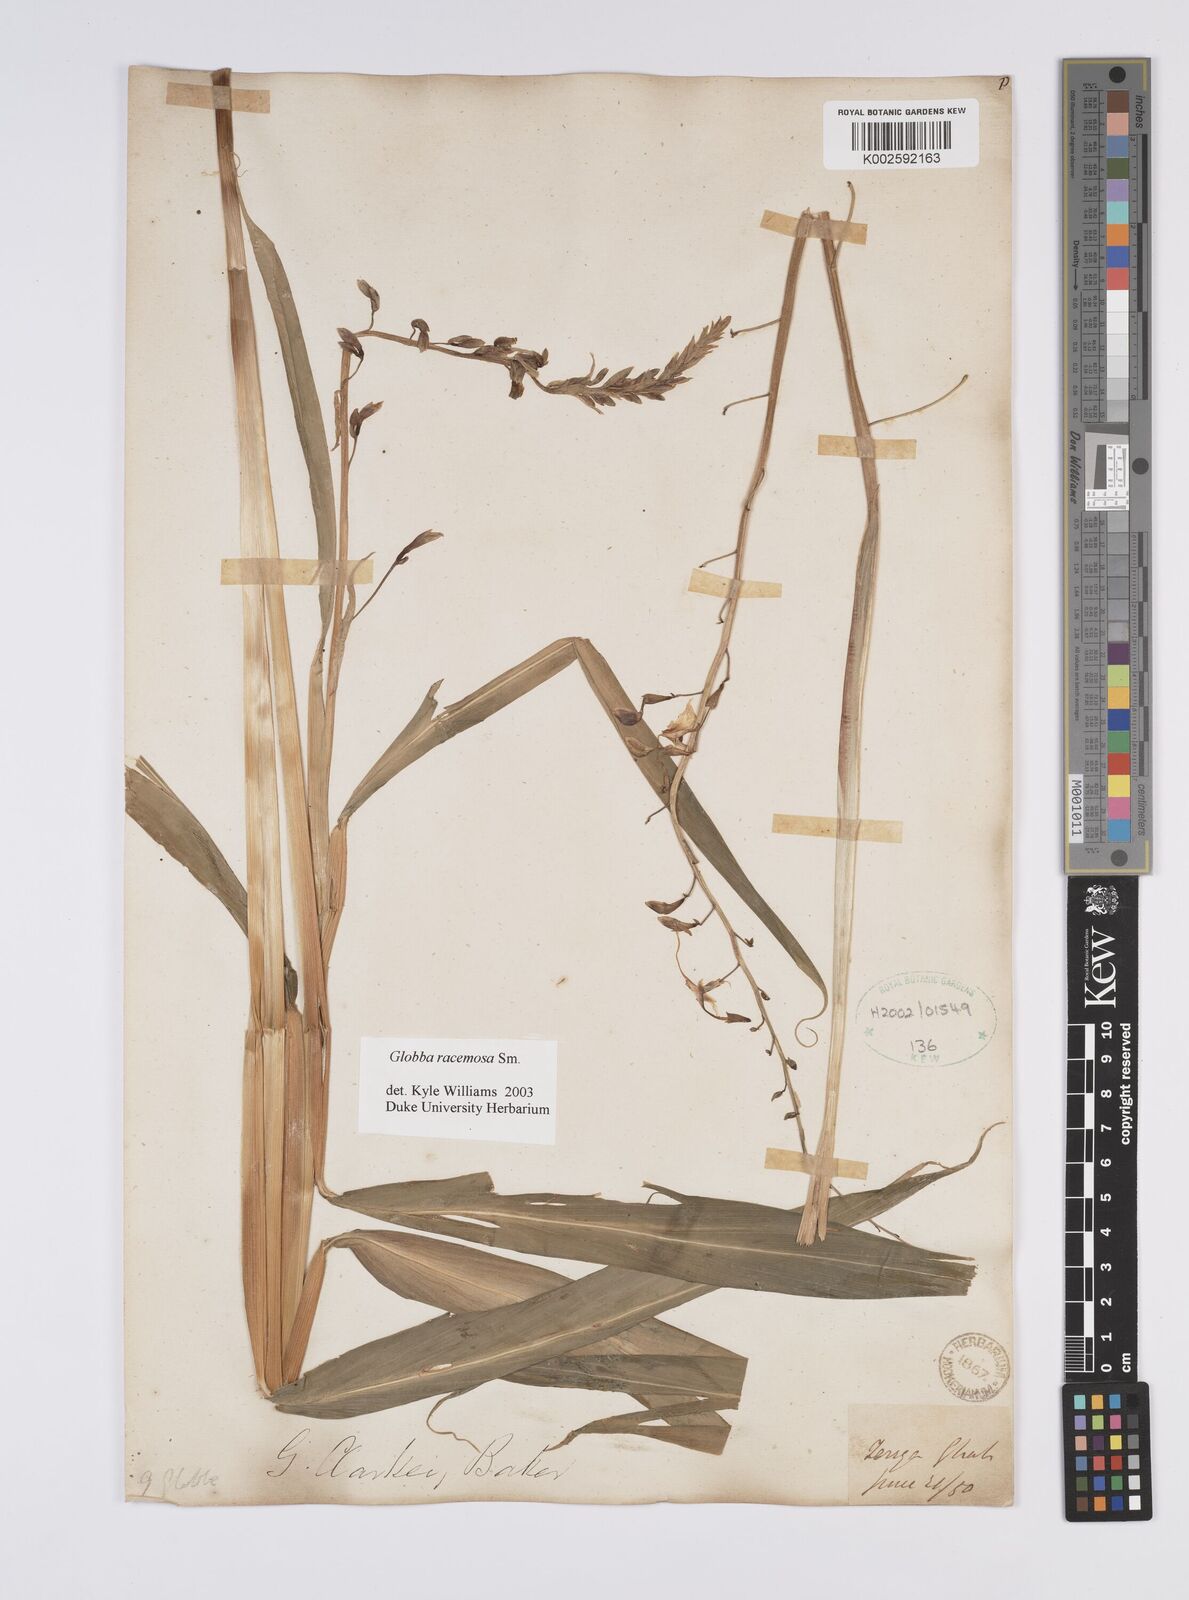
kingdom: Plantae
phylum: Tracheophyta
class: Liliopsida
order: Zingiberales
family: Zingiberaceae
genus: Globba
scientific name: Globba racemosa
